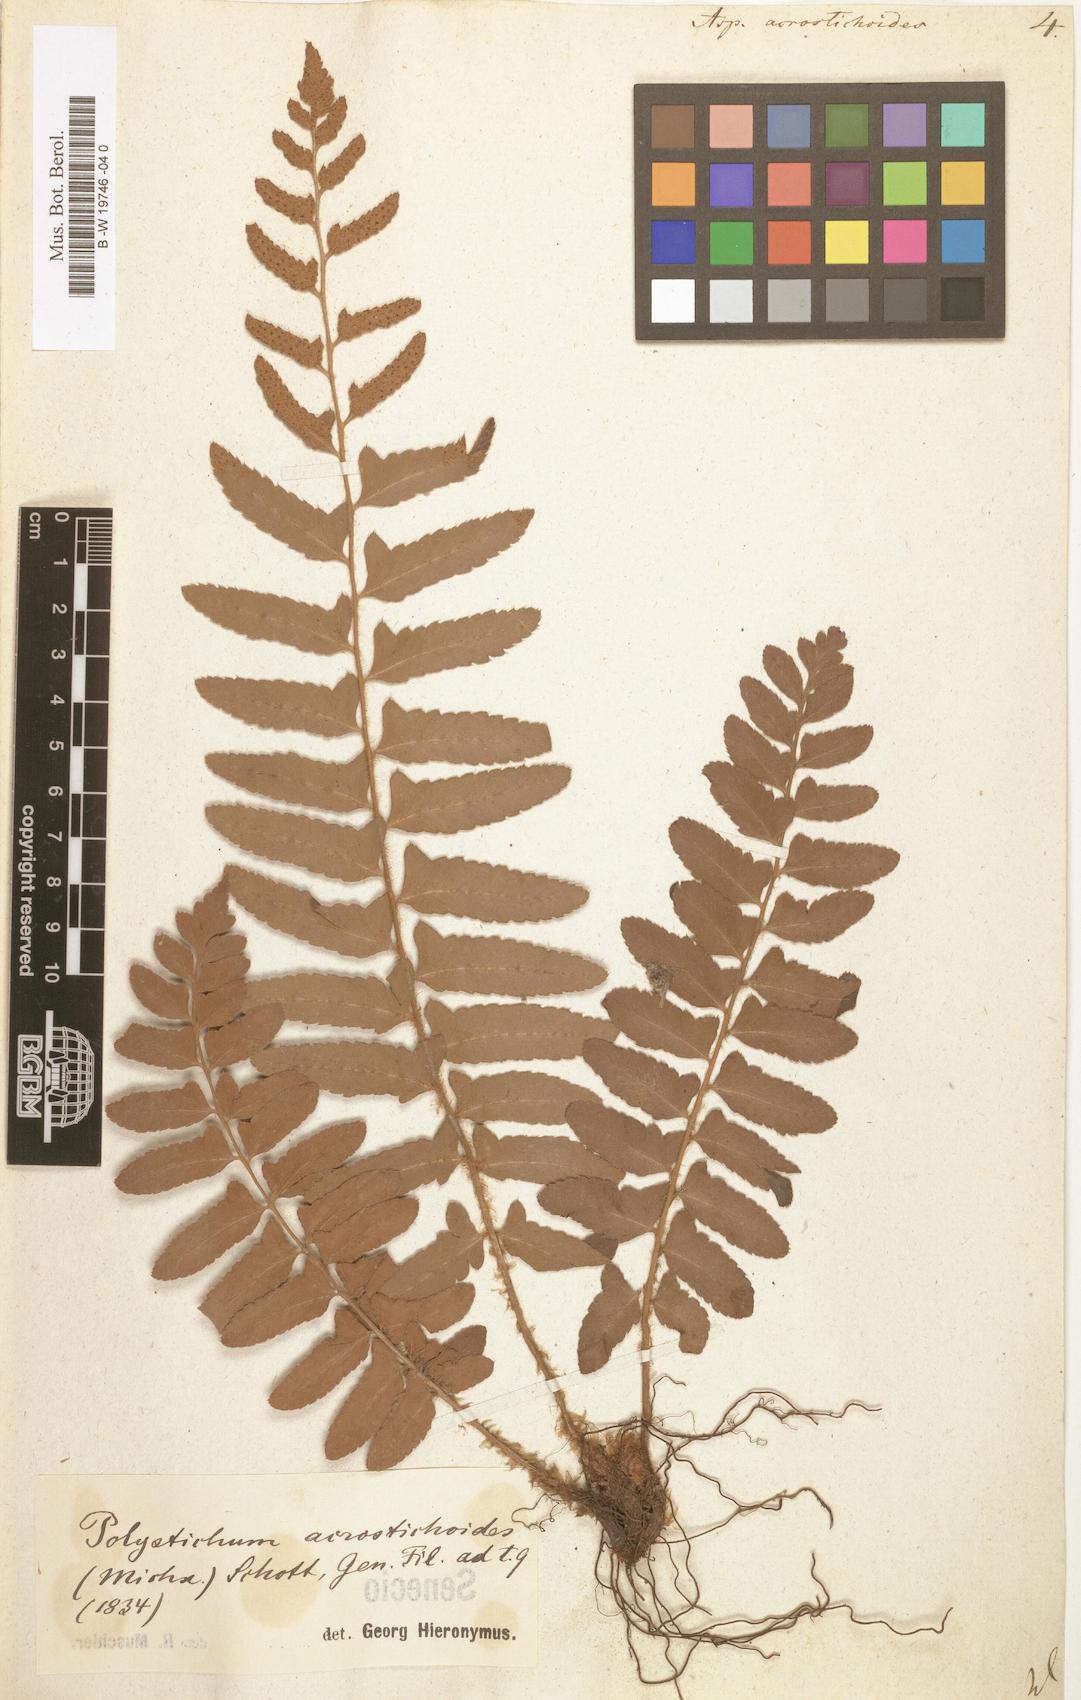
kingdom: Plantae
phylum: Tracheophyta
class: Polypodiopsida
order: Polypodiales
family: Dryopteridaceae
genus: Polystichum
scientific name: Polystichum acrostichoides
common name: Christmas fern
